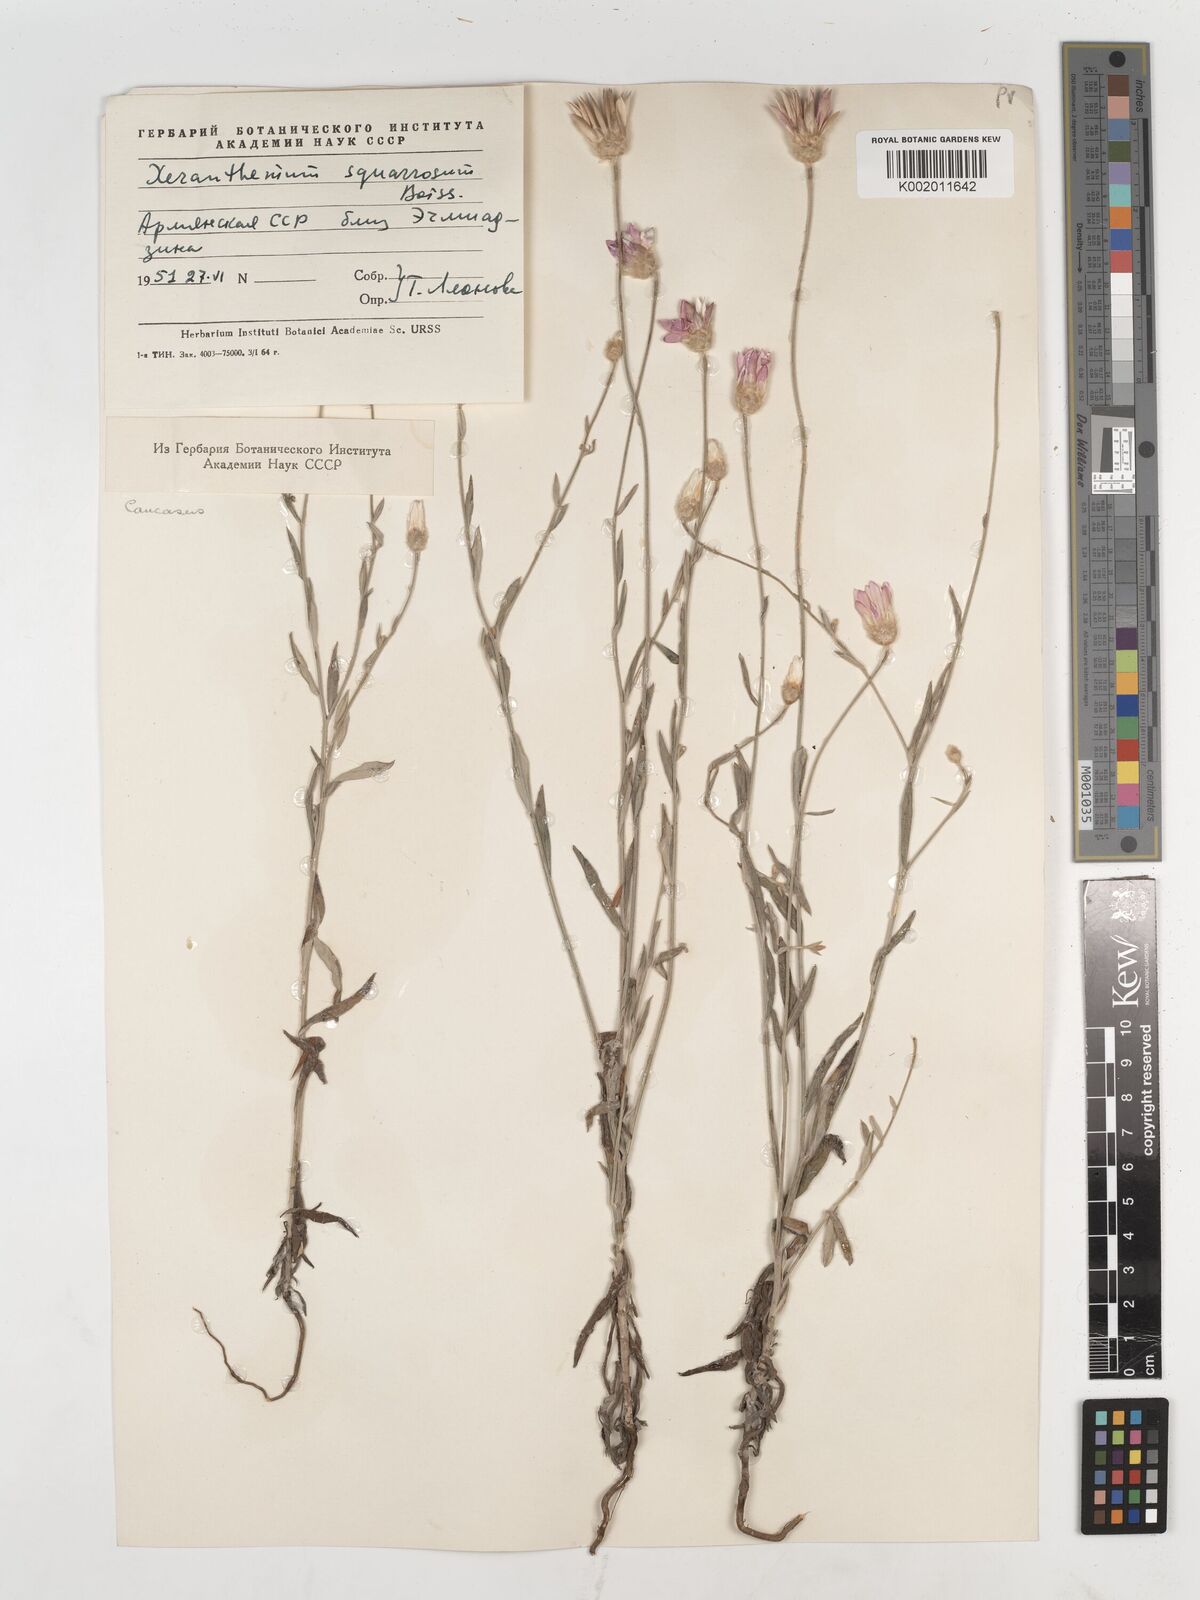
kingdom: Plantae
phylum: Tracheophyta
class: Magnoliopsida
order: Asterales
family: Asteraceae
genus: Xeranthemum
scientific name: Xeranthemum squarrosum
